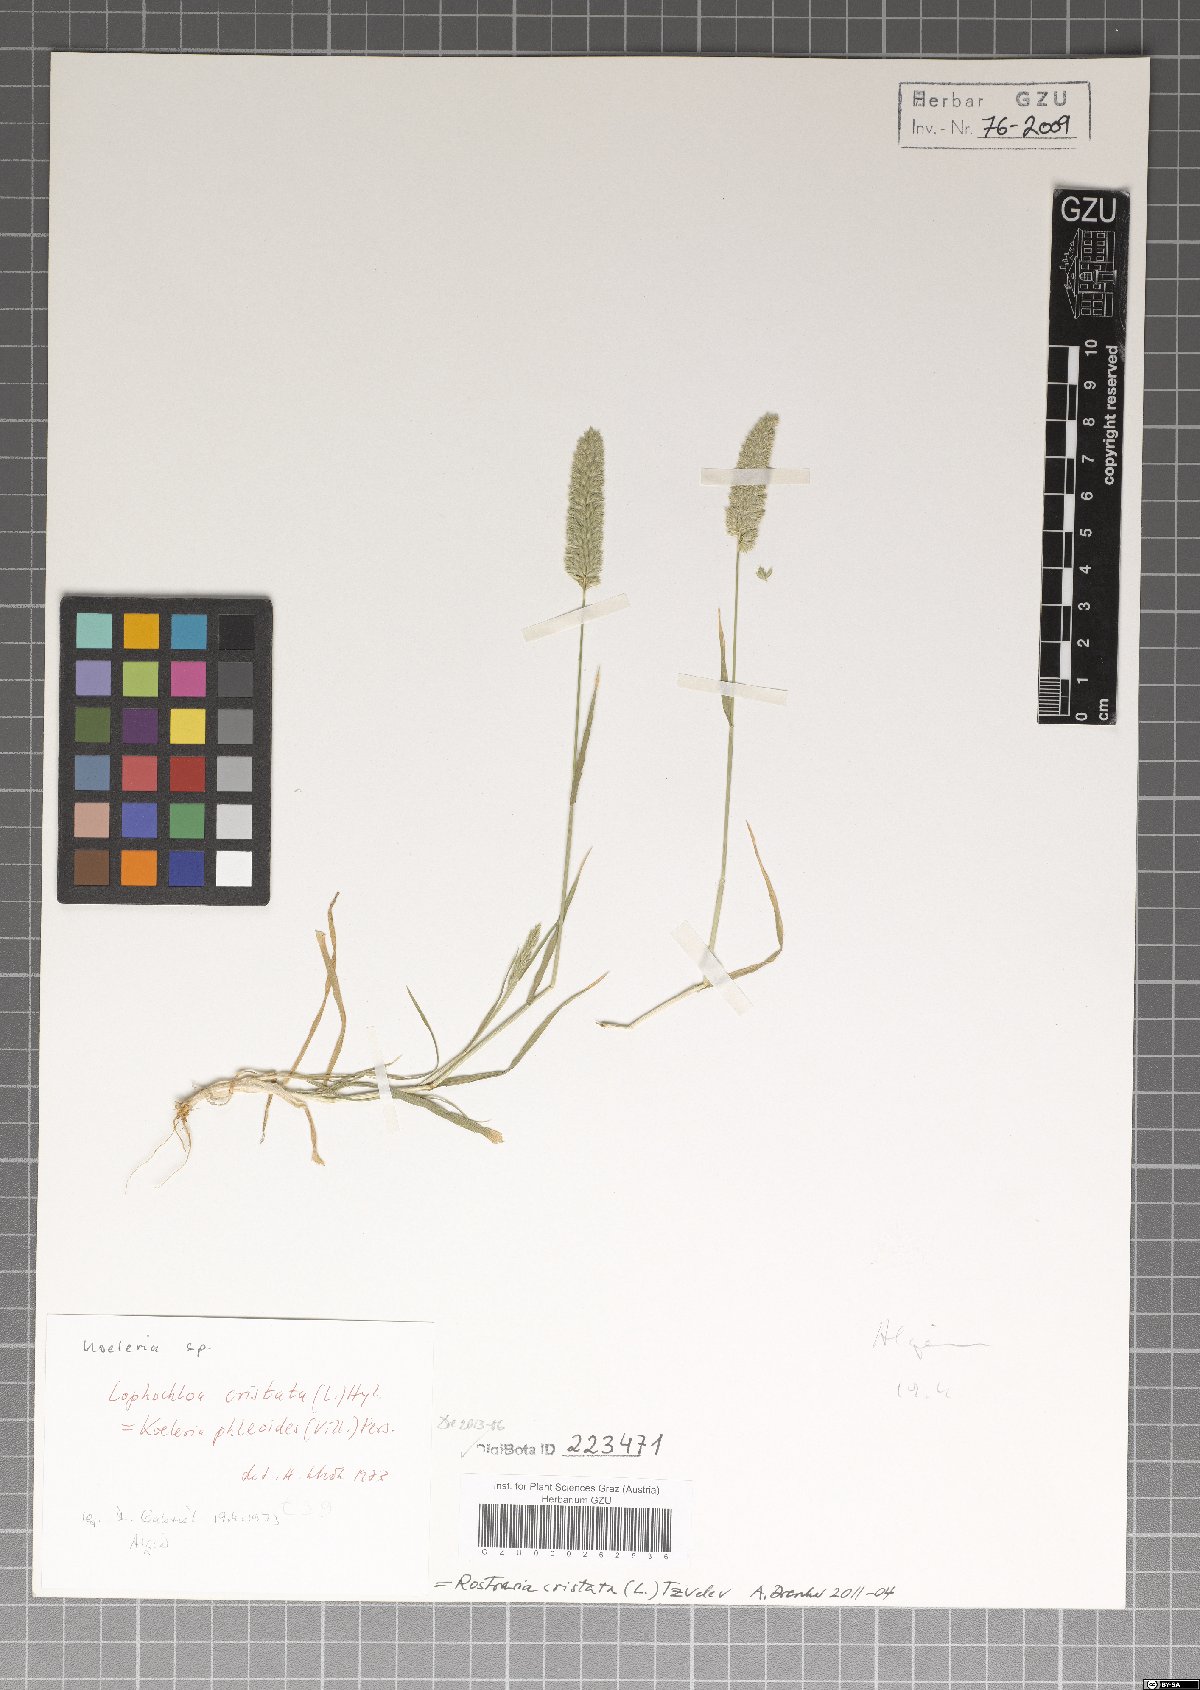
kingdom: Plantae
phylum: Tracheophyta
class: Liliopsida
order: Poales
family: Poaceae
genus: Rostraria
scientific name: Rostraria cristata
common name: Mediterranean hair-grass
